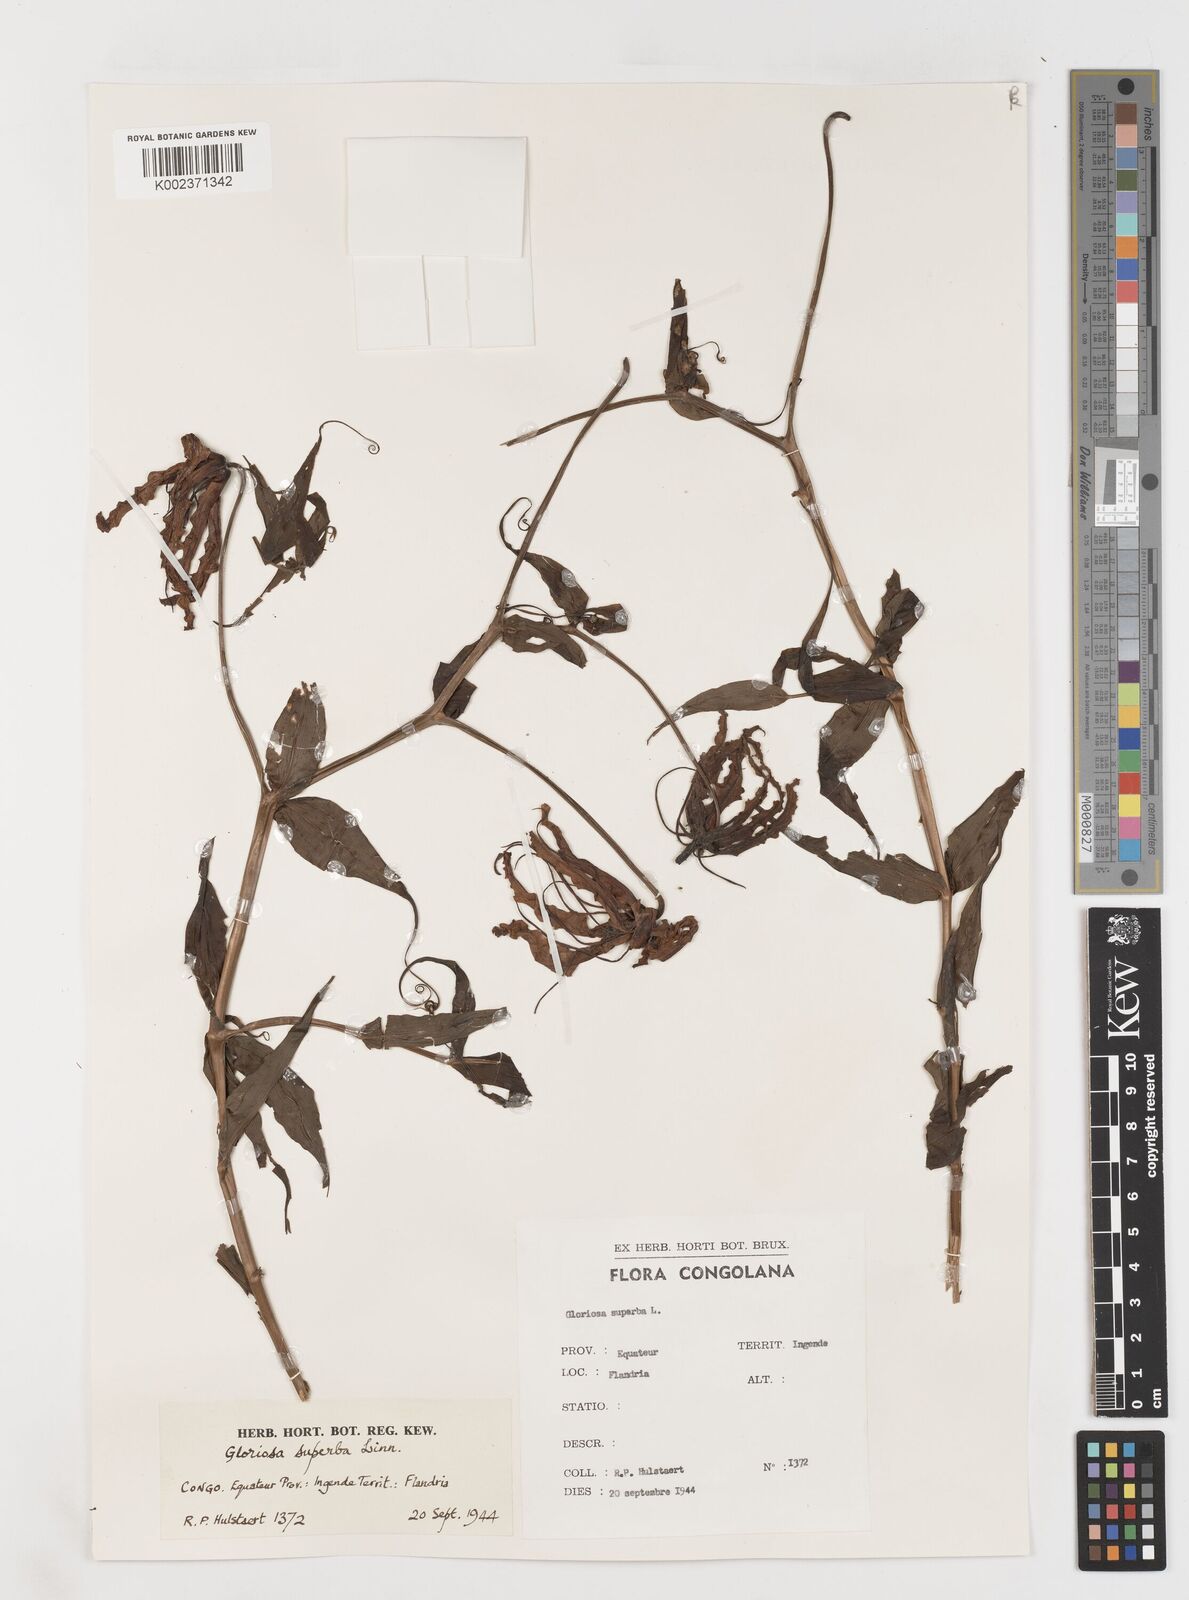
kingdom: Plantae
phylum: Tracheophyta
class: Liliopsida
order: Liliales
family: Colchicaceae
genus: Gloriosa
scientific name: Gloriosa superba
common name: Flame lily
